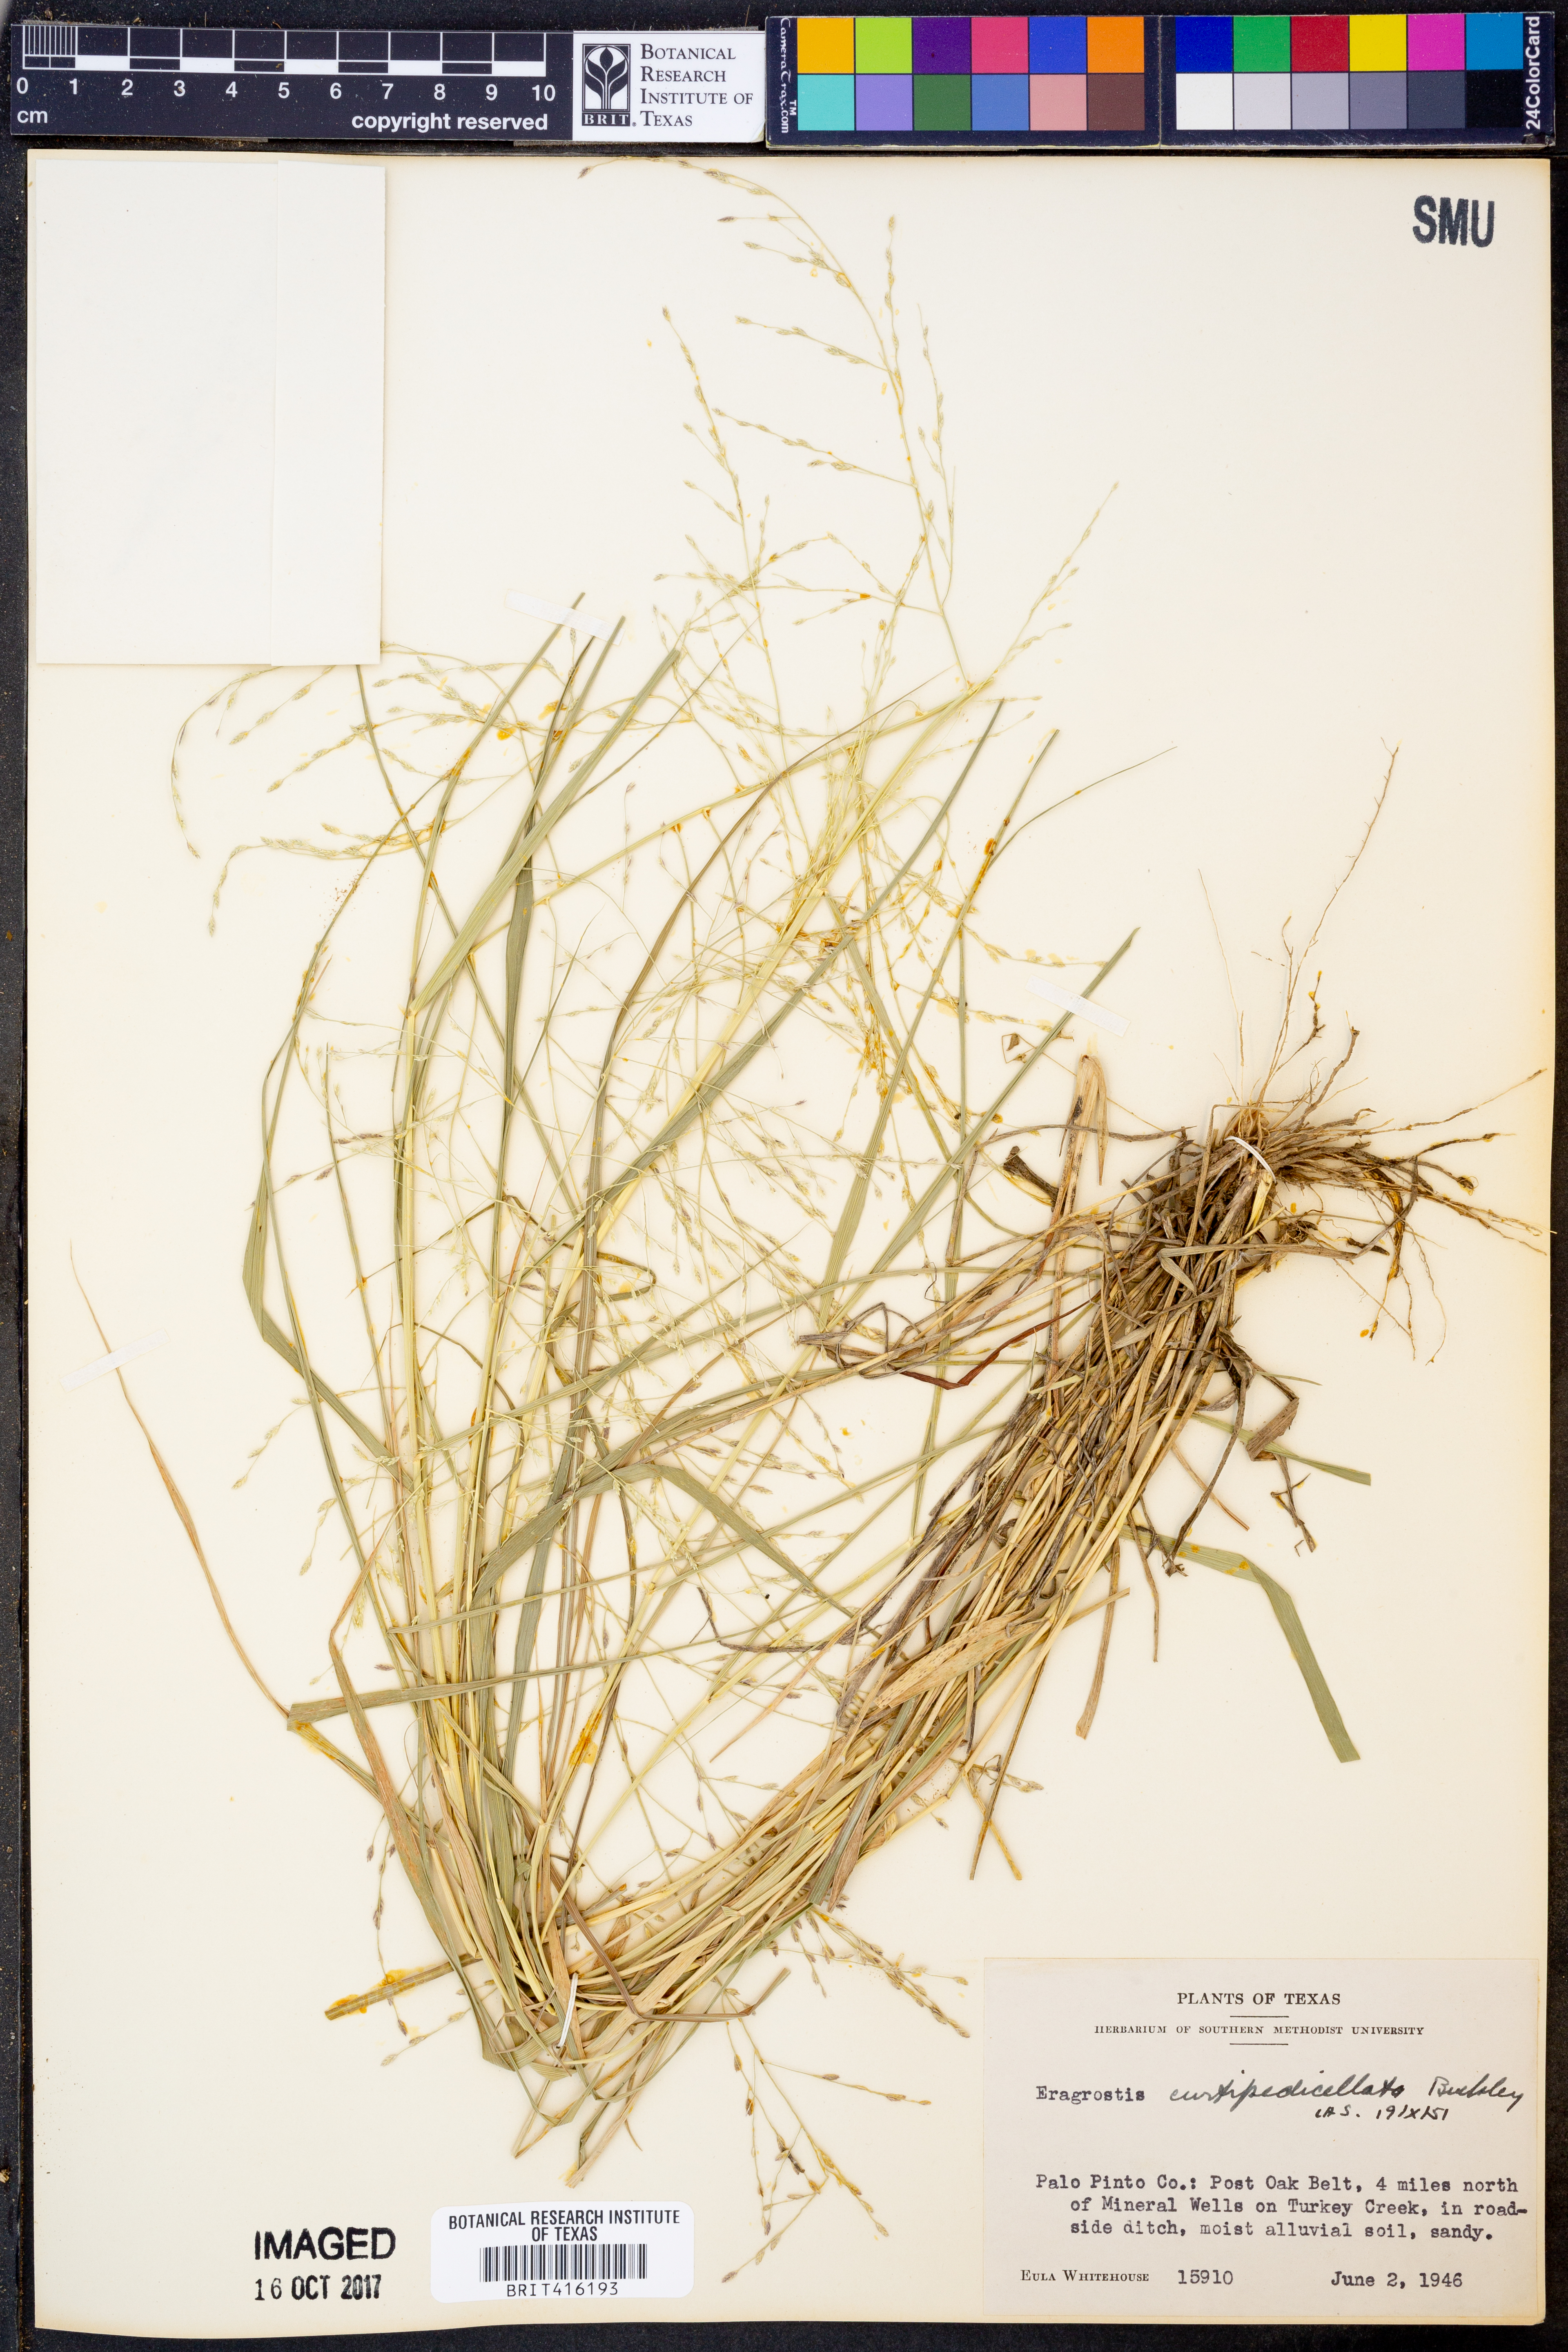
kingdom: Plantae
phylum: Tracheophyta
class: Liliopsida
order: Poales
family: Poaceae
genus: Eragrostis
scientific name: Eragrostis curtipedicellata
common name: Gummy love grass
